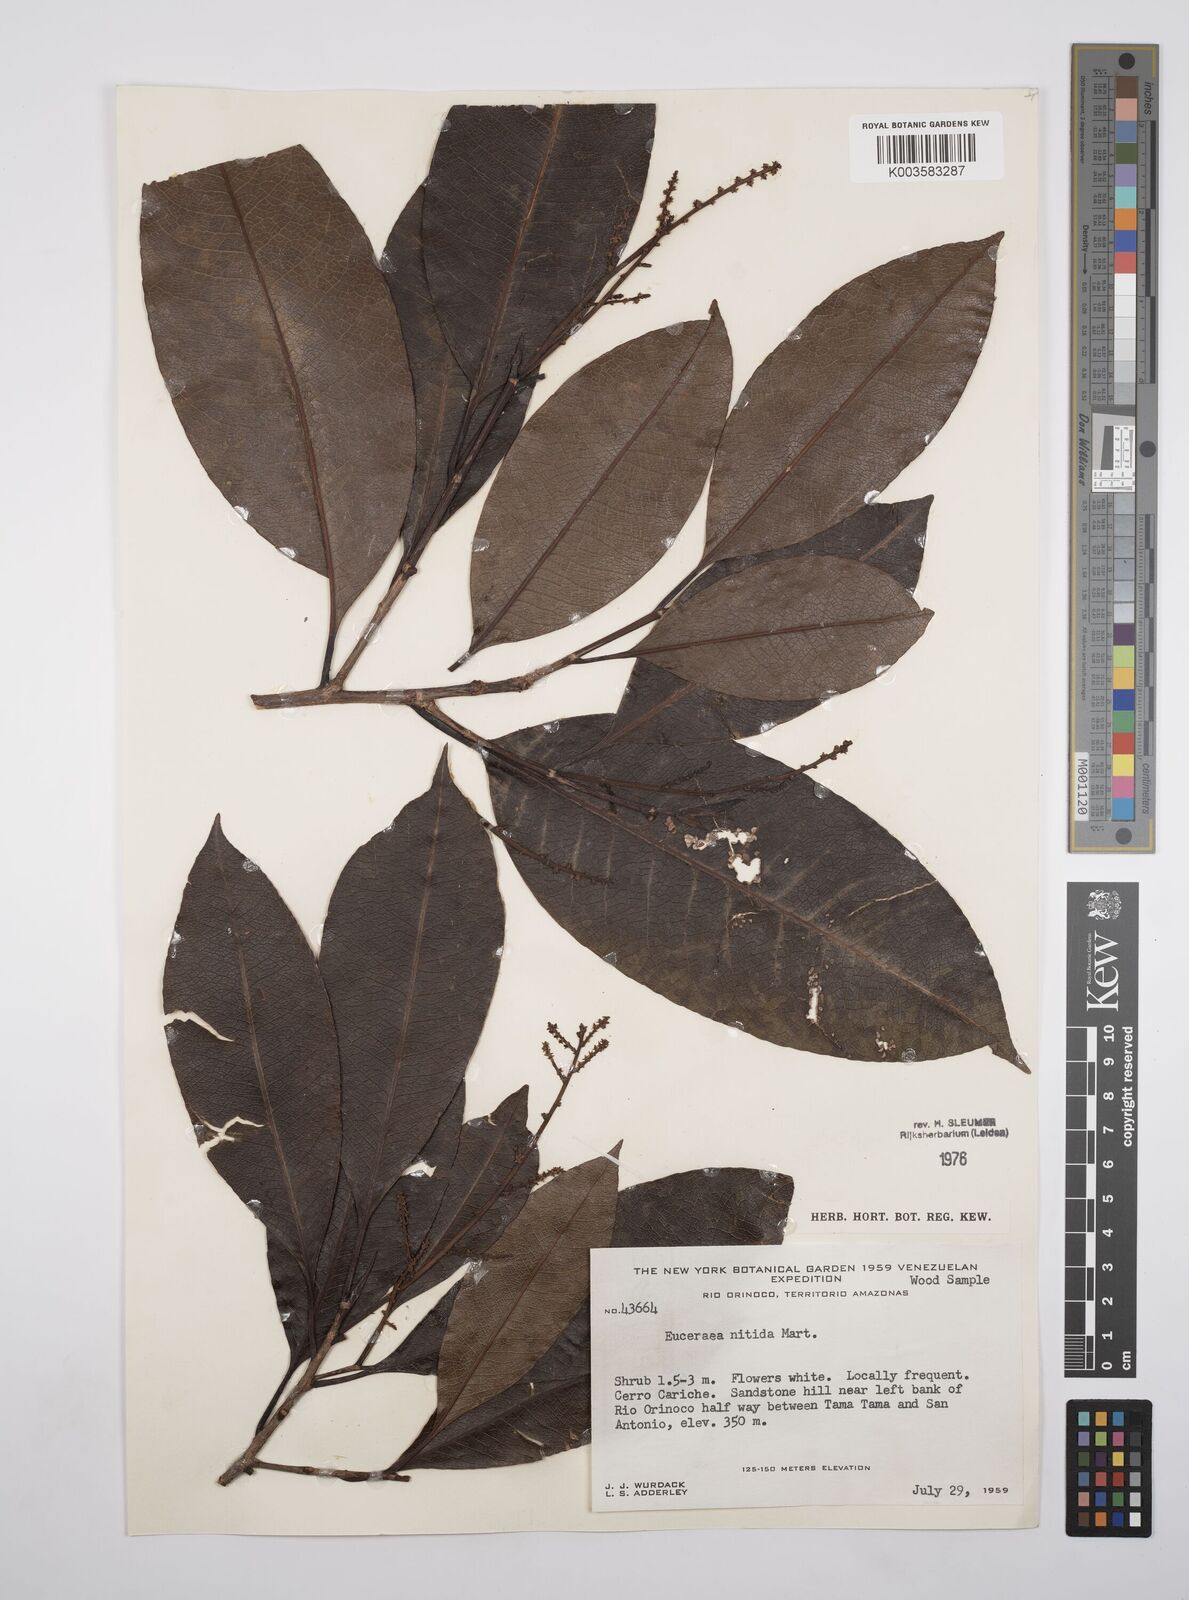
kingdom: Plantae
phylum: Tracheophyta
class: Magnoliopsida
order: Malpighiales
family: Salicaceae
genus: Casearia
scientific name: Casearia euceraea
